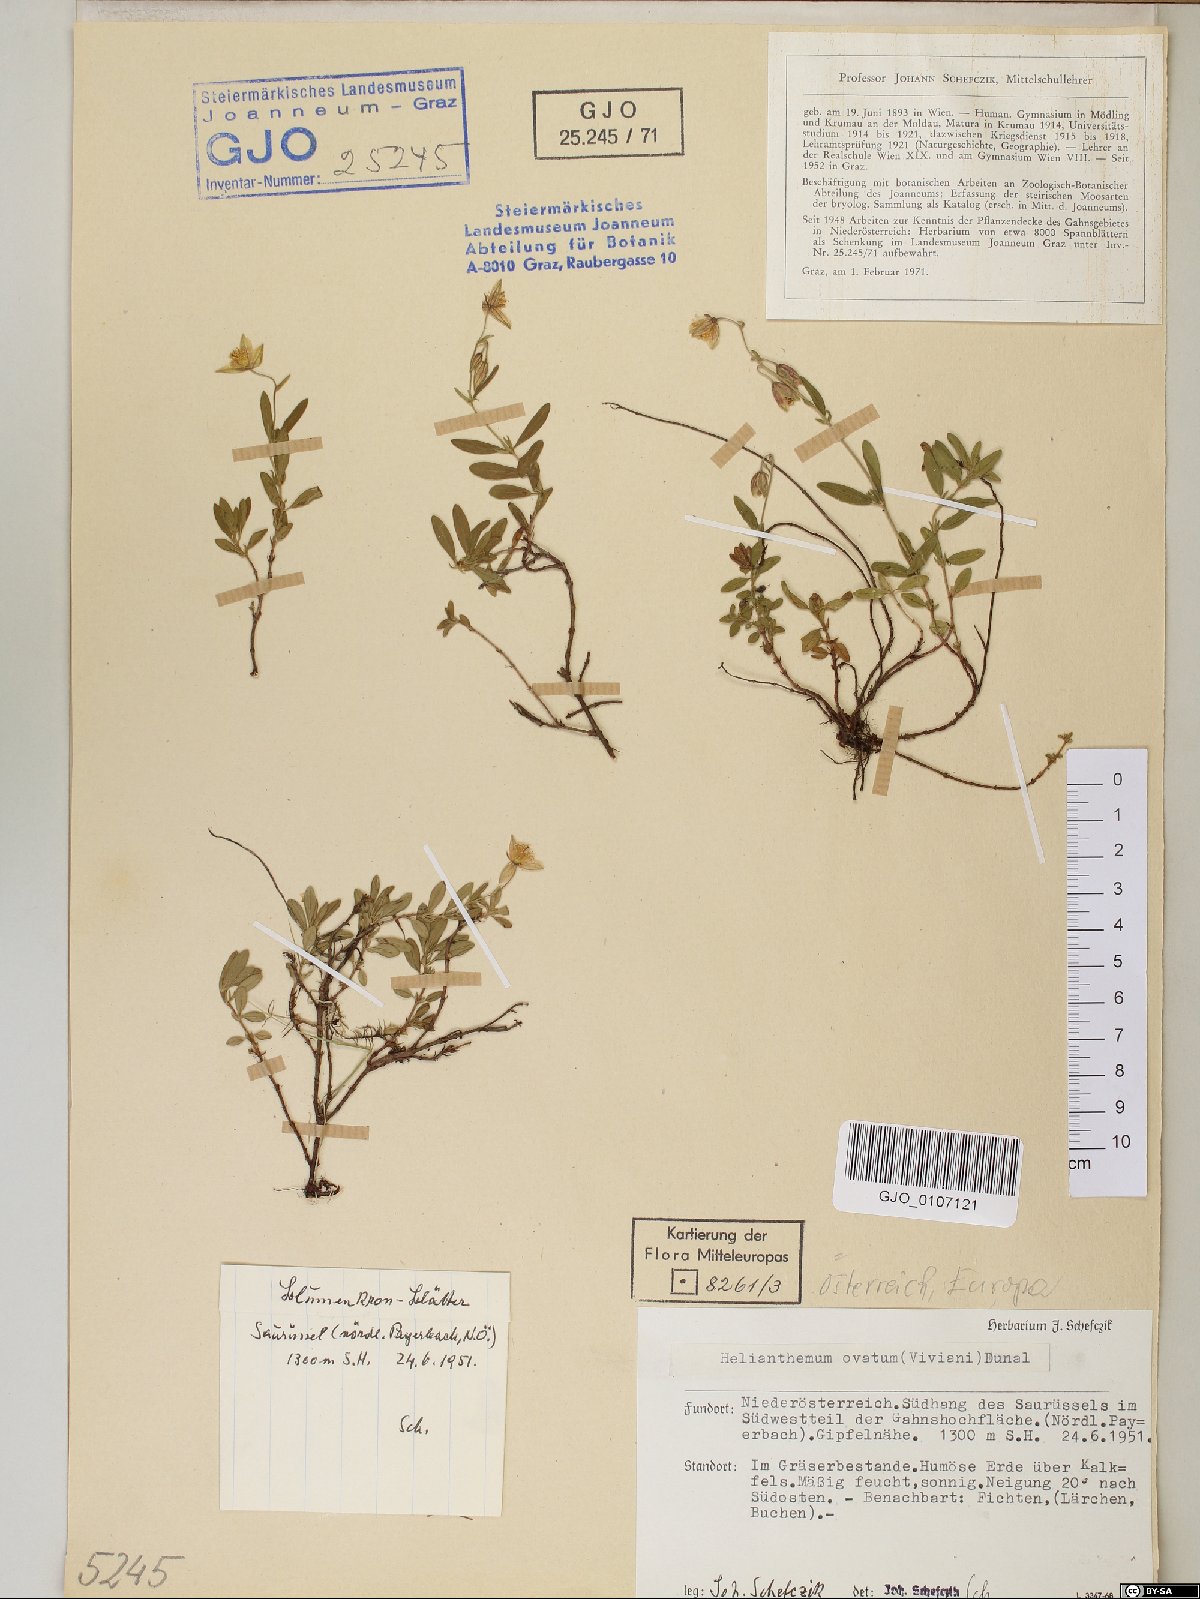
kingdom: Plantae
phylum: Tracheophyta
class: Magnoliopsida
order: Malvales
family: Cistaceae
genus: Helianthemum
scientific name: Helianthemum nummularium
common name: Common rock-rose
